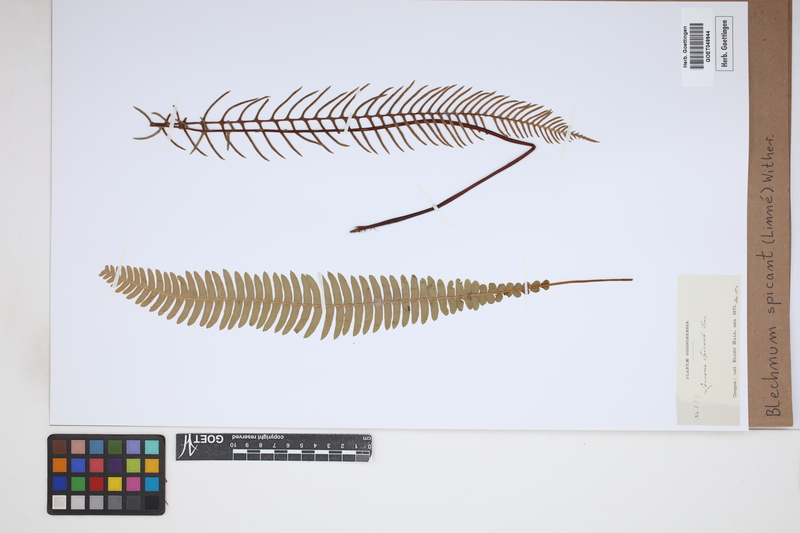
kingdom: Plantae
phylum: Tracheophyta
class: Polypodiopsida
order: Polypodiales
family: Blechnaceae
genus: Struthiopteris
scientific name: Struthiopteris spicant
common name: Deer fern
